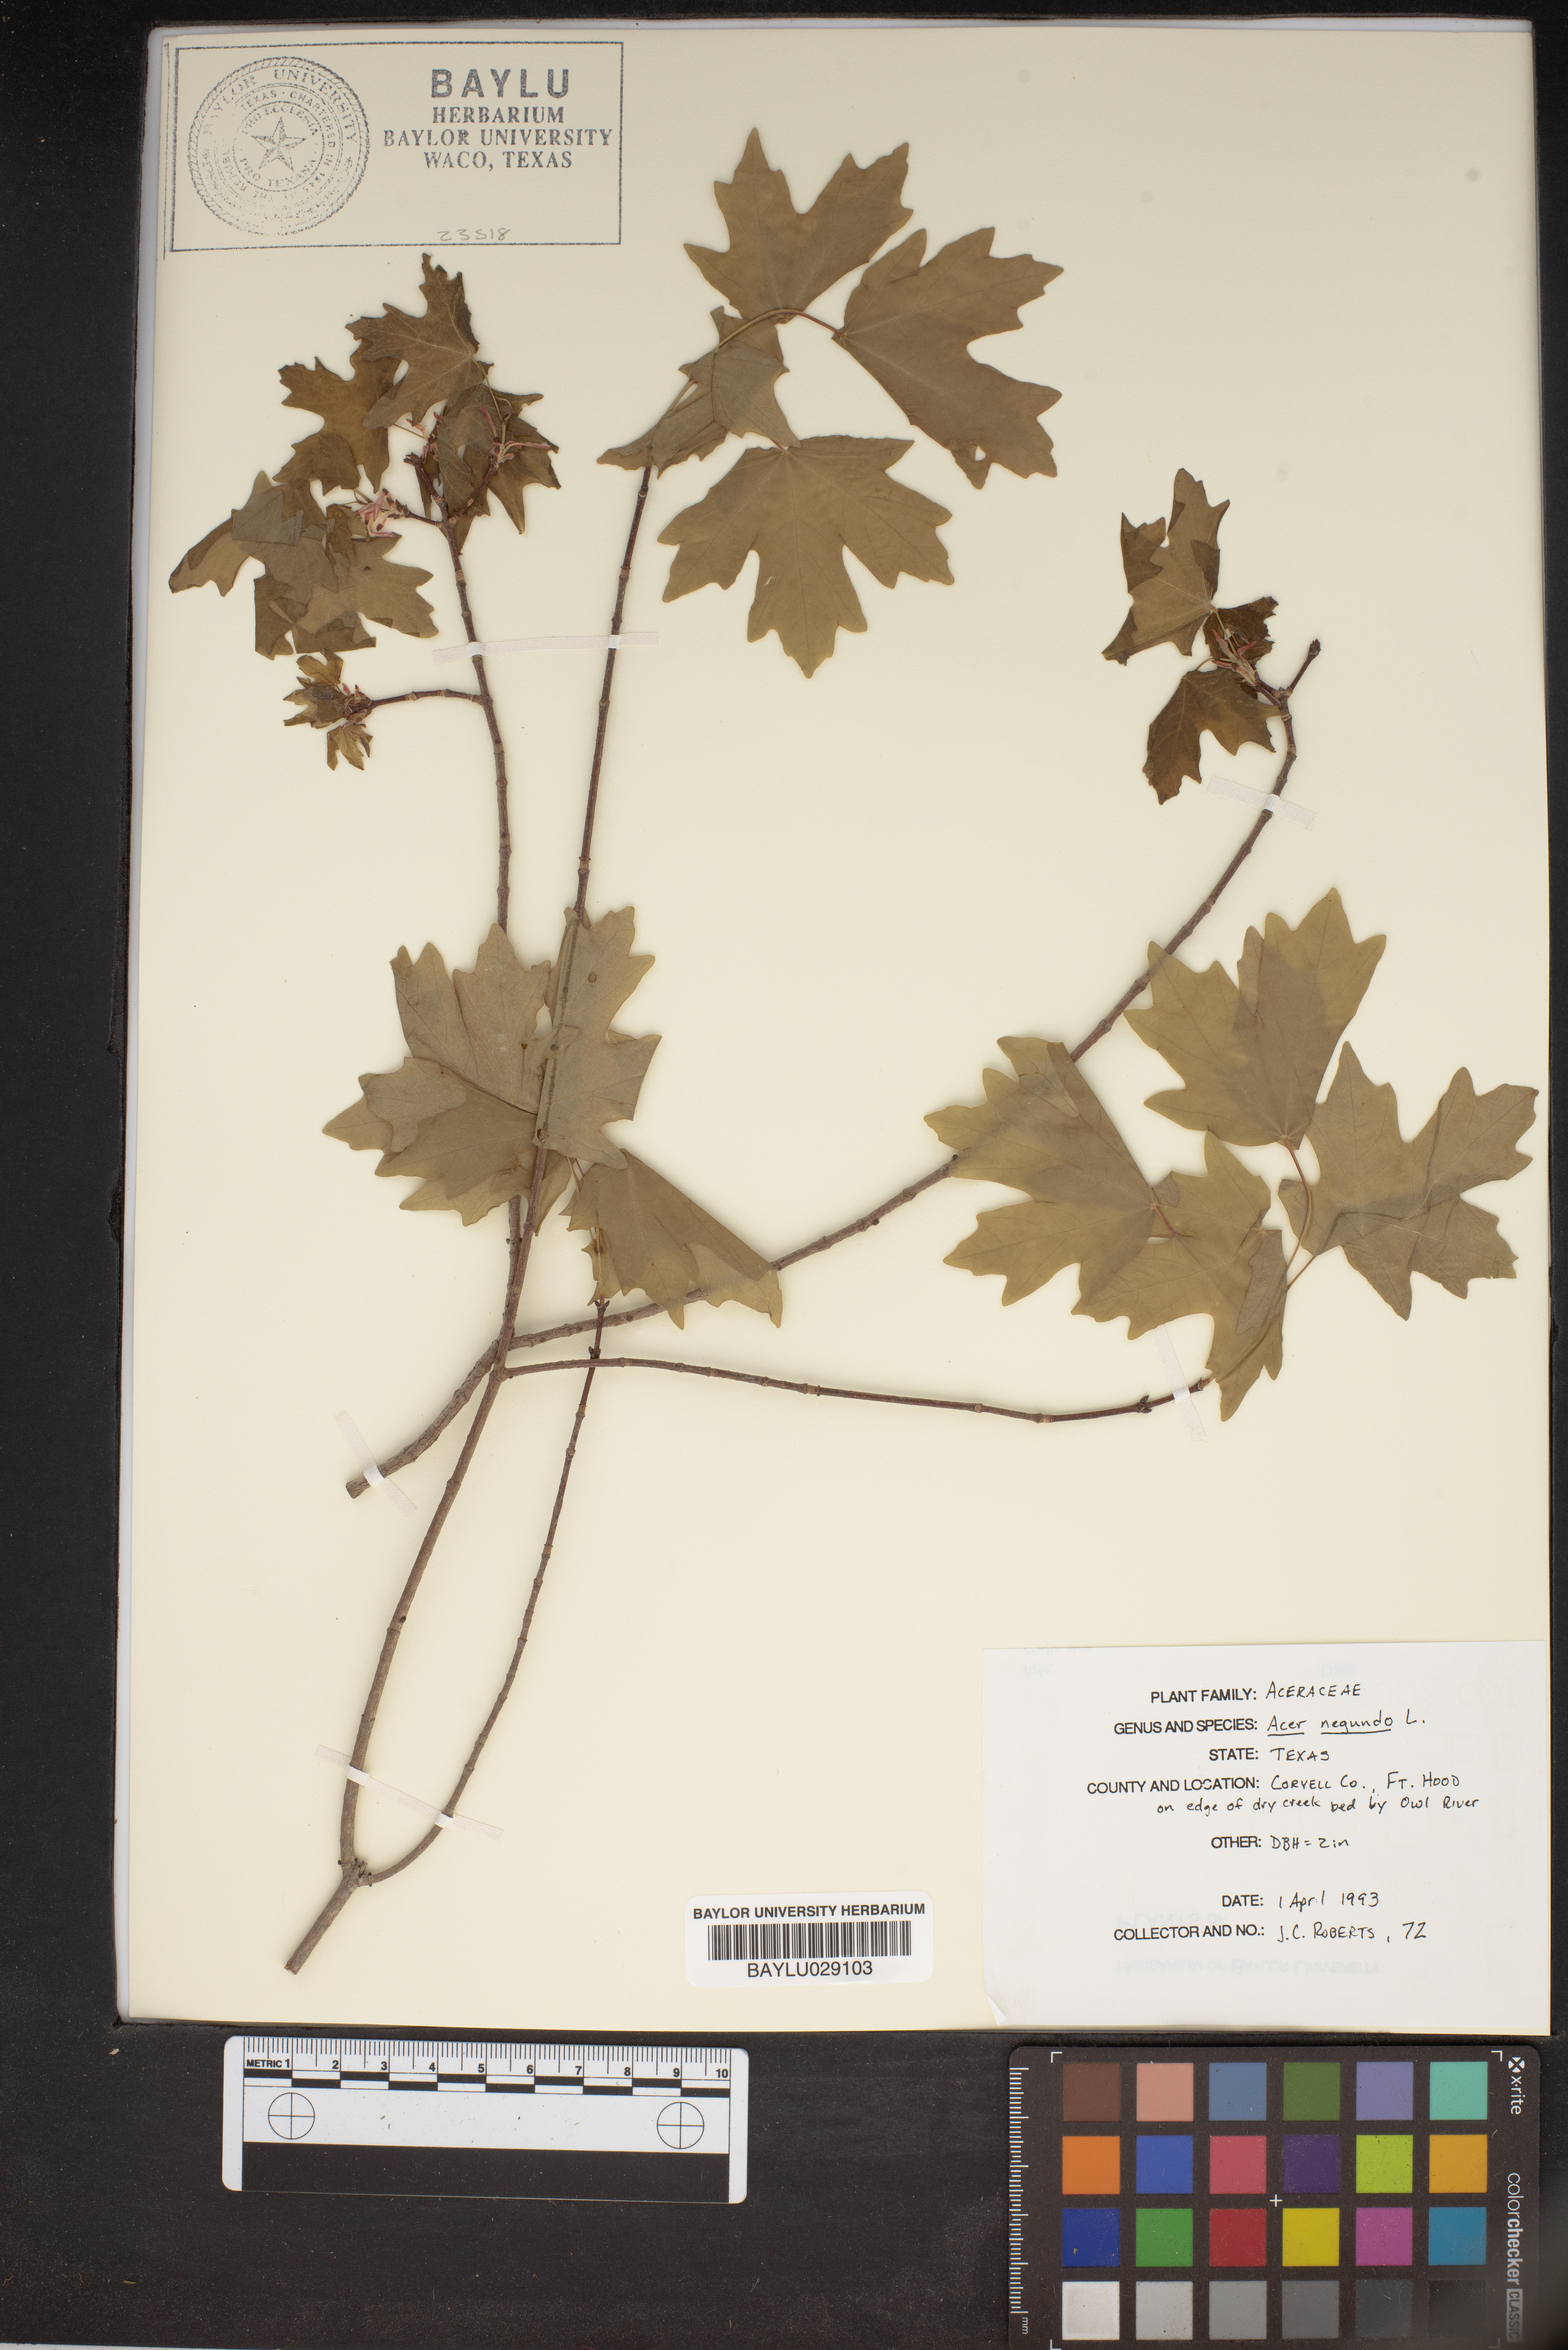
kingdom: Plantae
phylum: Tracheophyta
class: Magnoliopsida
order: Sapindales
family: Sapindaceae
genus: Acer
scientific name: Acer negundo
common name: Ashleaf maple
